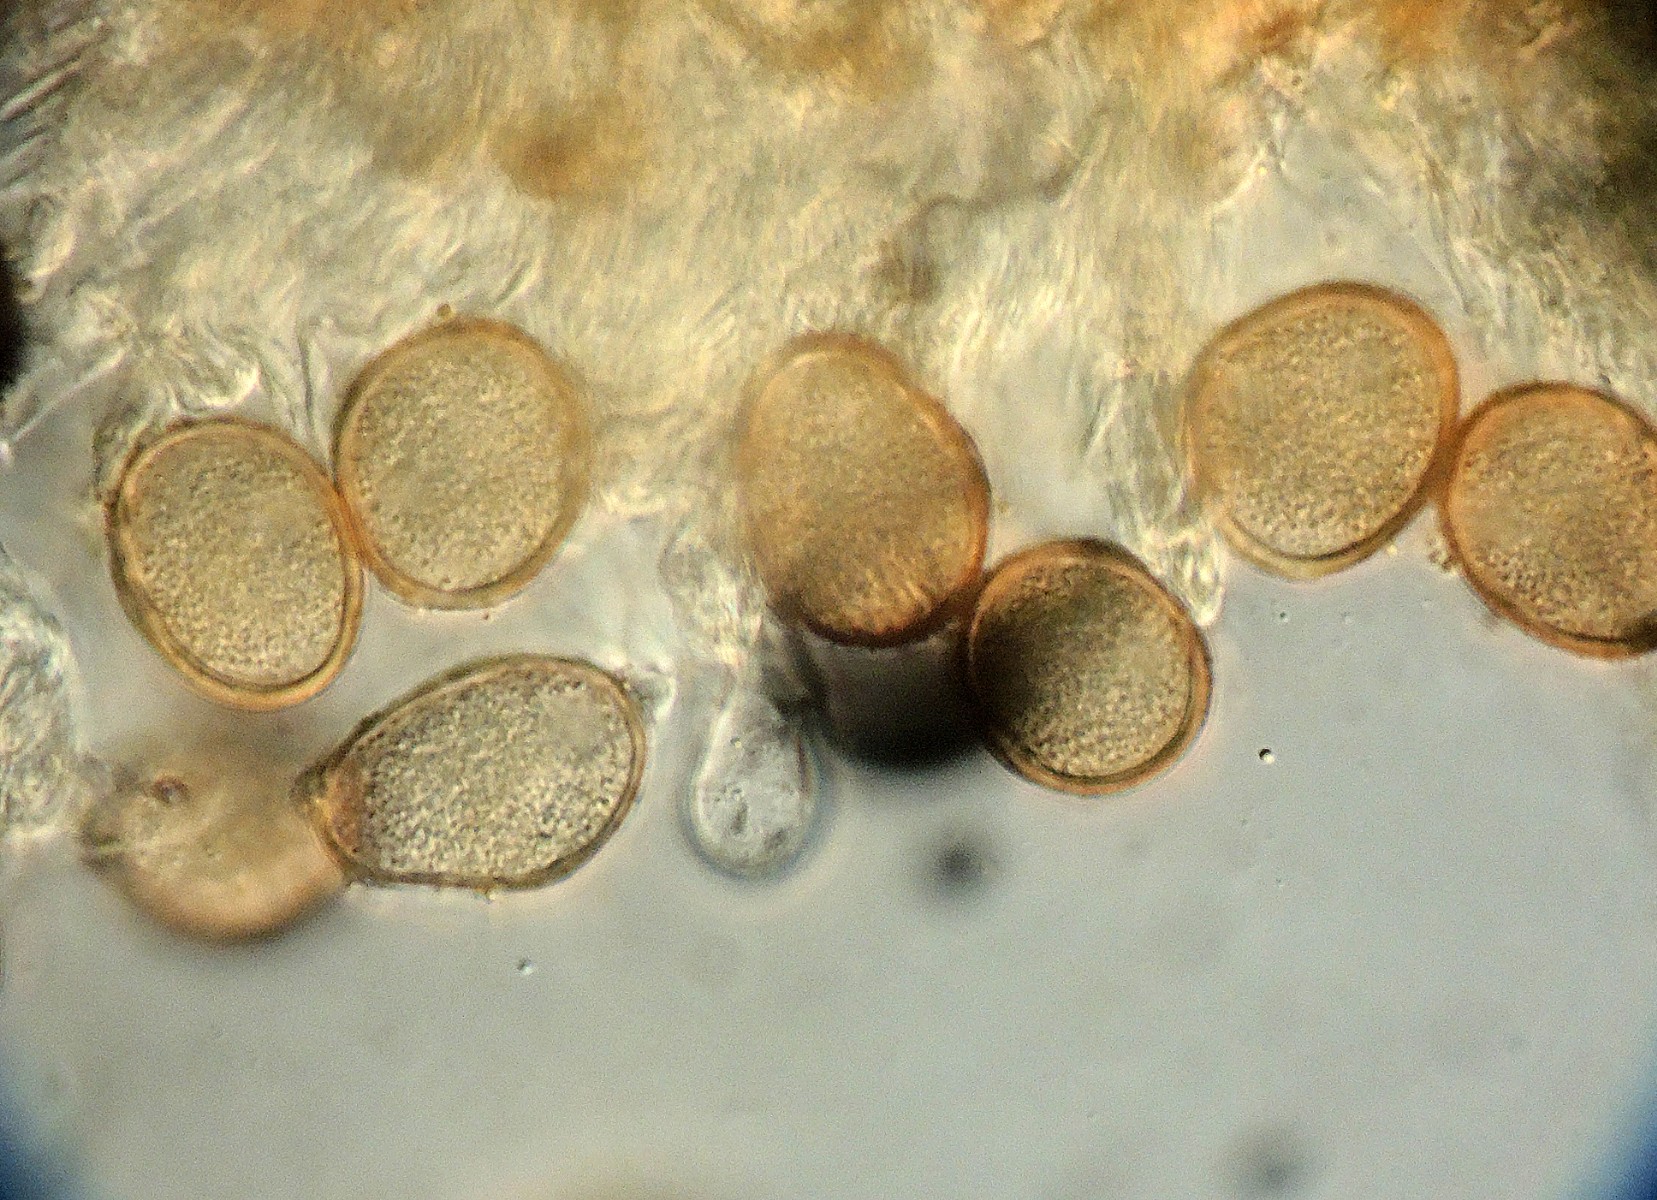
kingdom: Fungi
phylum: Basidiomycota
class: Pucciniomycetes
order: Pucciniales
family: Pucciniaceae
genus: Uromyces
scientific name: Uromyces lineolatus
